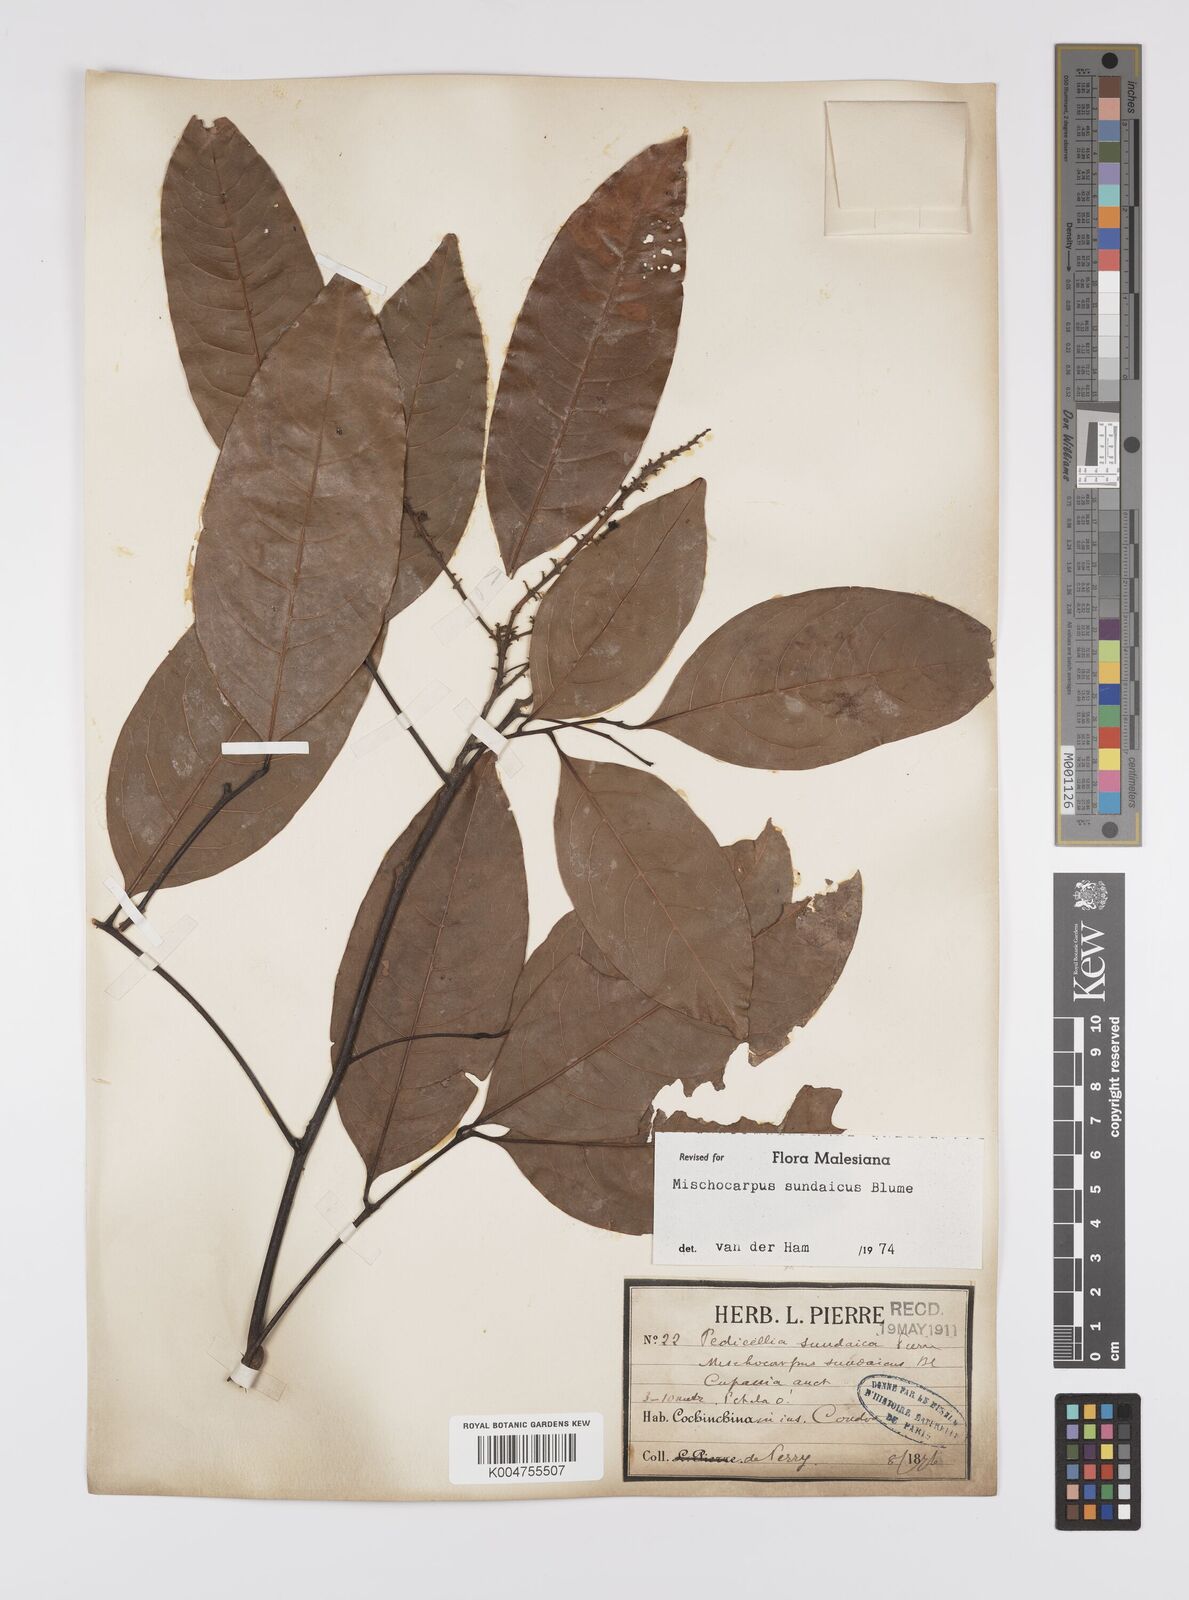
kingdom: Plantae
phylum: Tracheophyta
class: Magnoliopsida
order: Sapindales
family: Sapindaceae
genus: Mischocarpus
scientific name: Mischocarpus sundaicus
